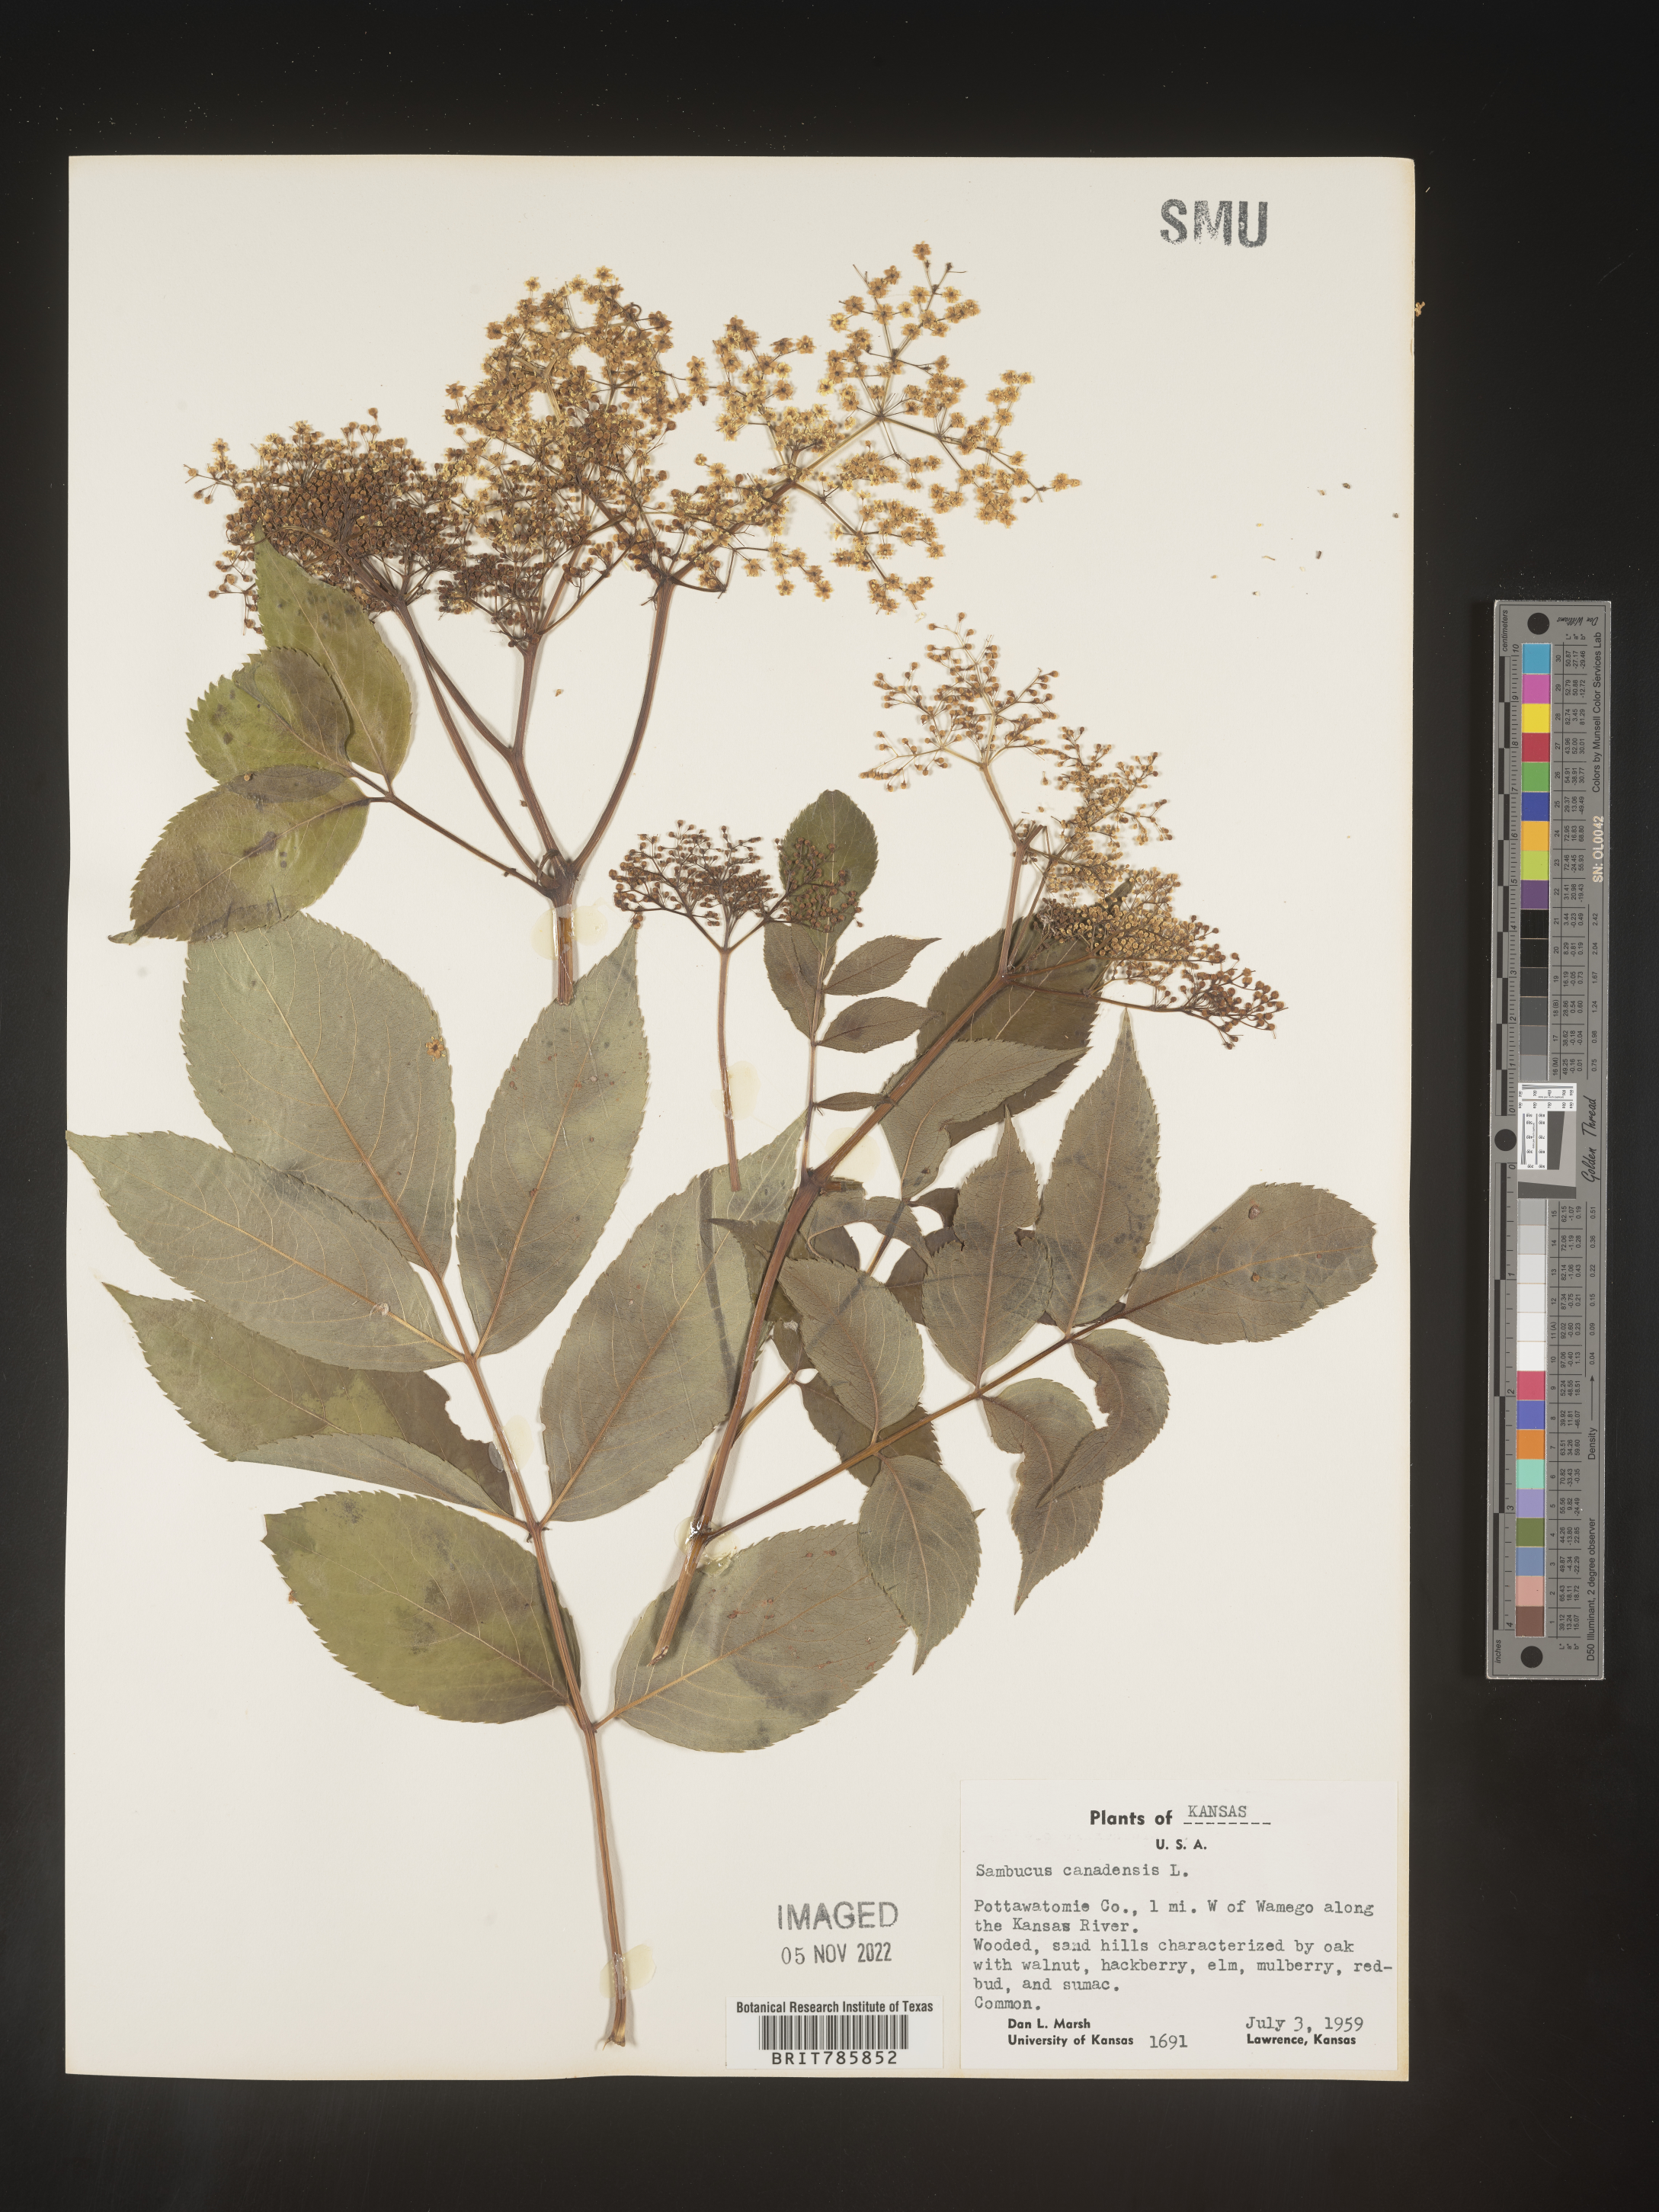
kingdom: Plantae
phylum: Tracheophyta
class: Magnoliopsida
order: Dipsacales
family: Viburnaceae
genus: Sambucus
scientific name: Sambucus nigra
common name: Elder
